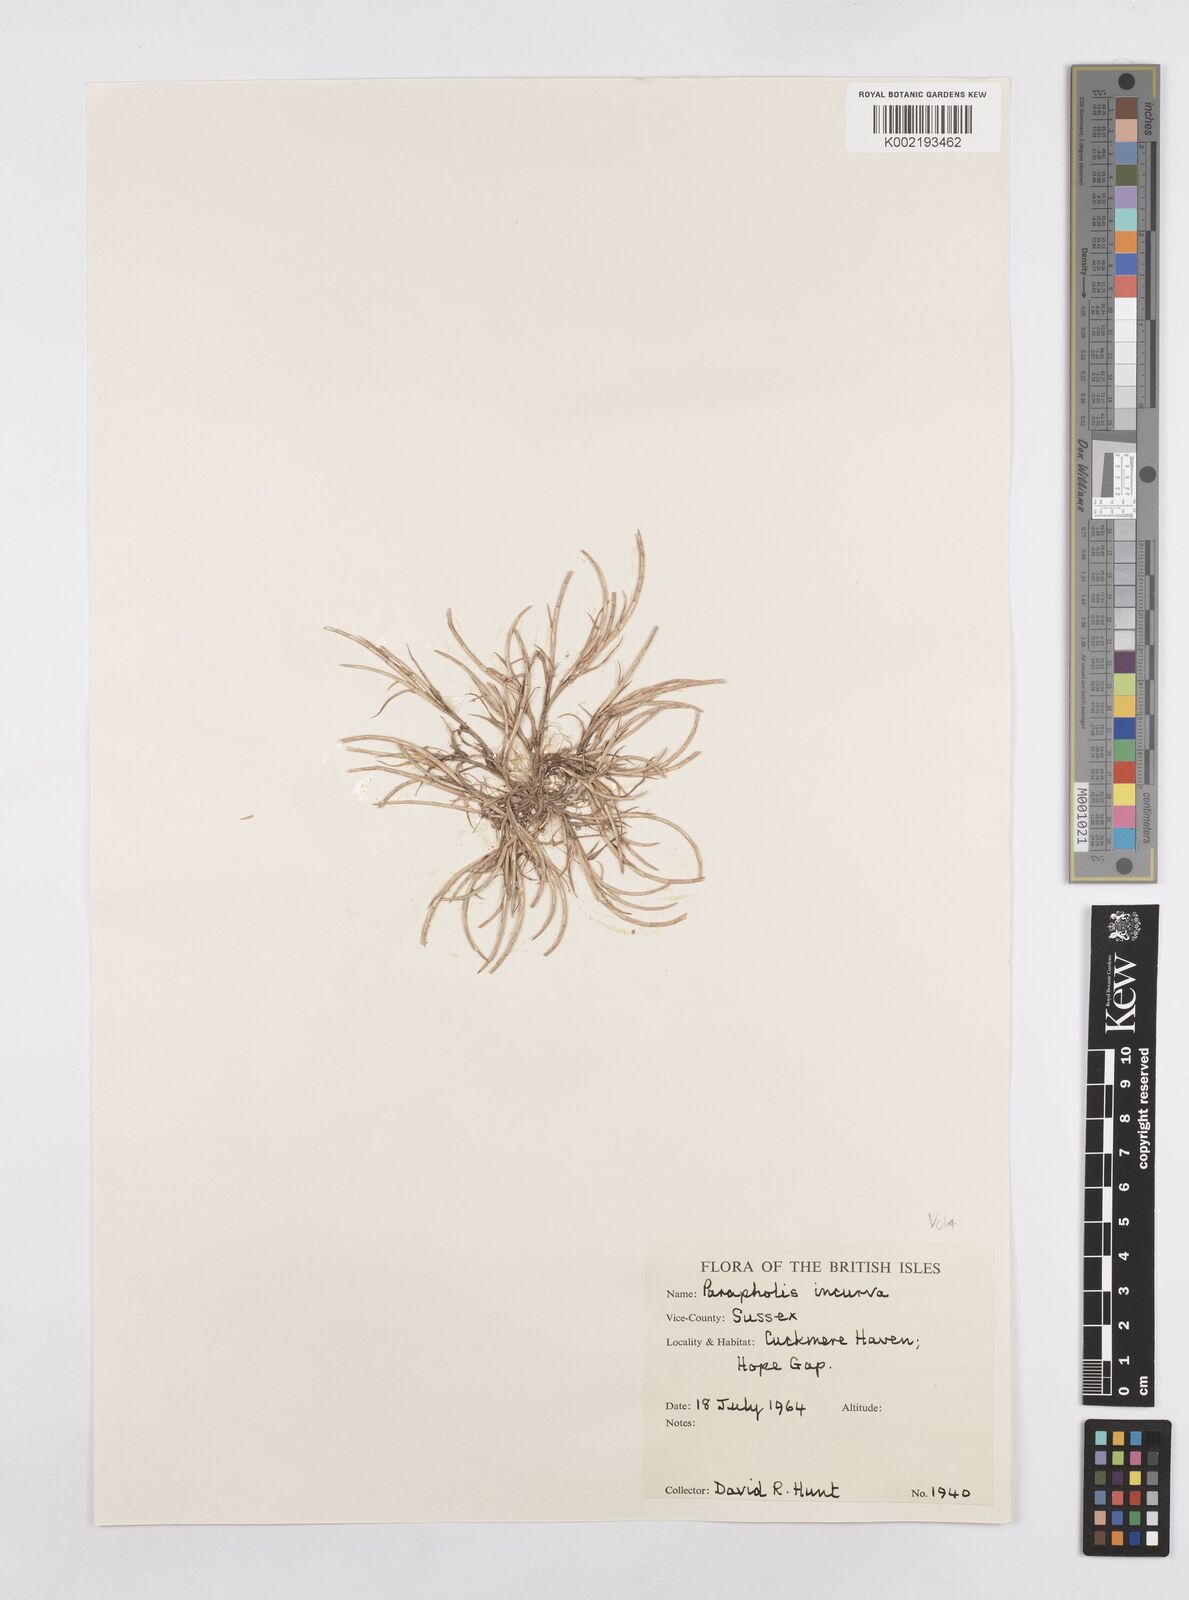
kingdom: Plantae
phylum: Tracheophyta
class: Liliopsida
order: Poales
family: Poaceae
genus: Parapholis
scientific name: Parapholis incurva
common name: Curved sicklegrass
